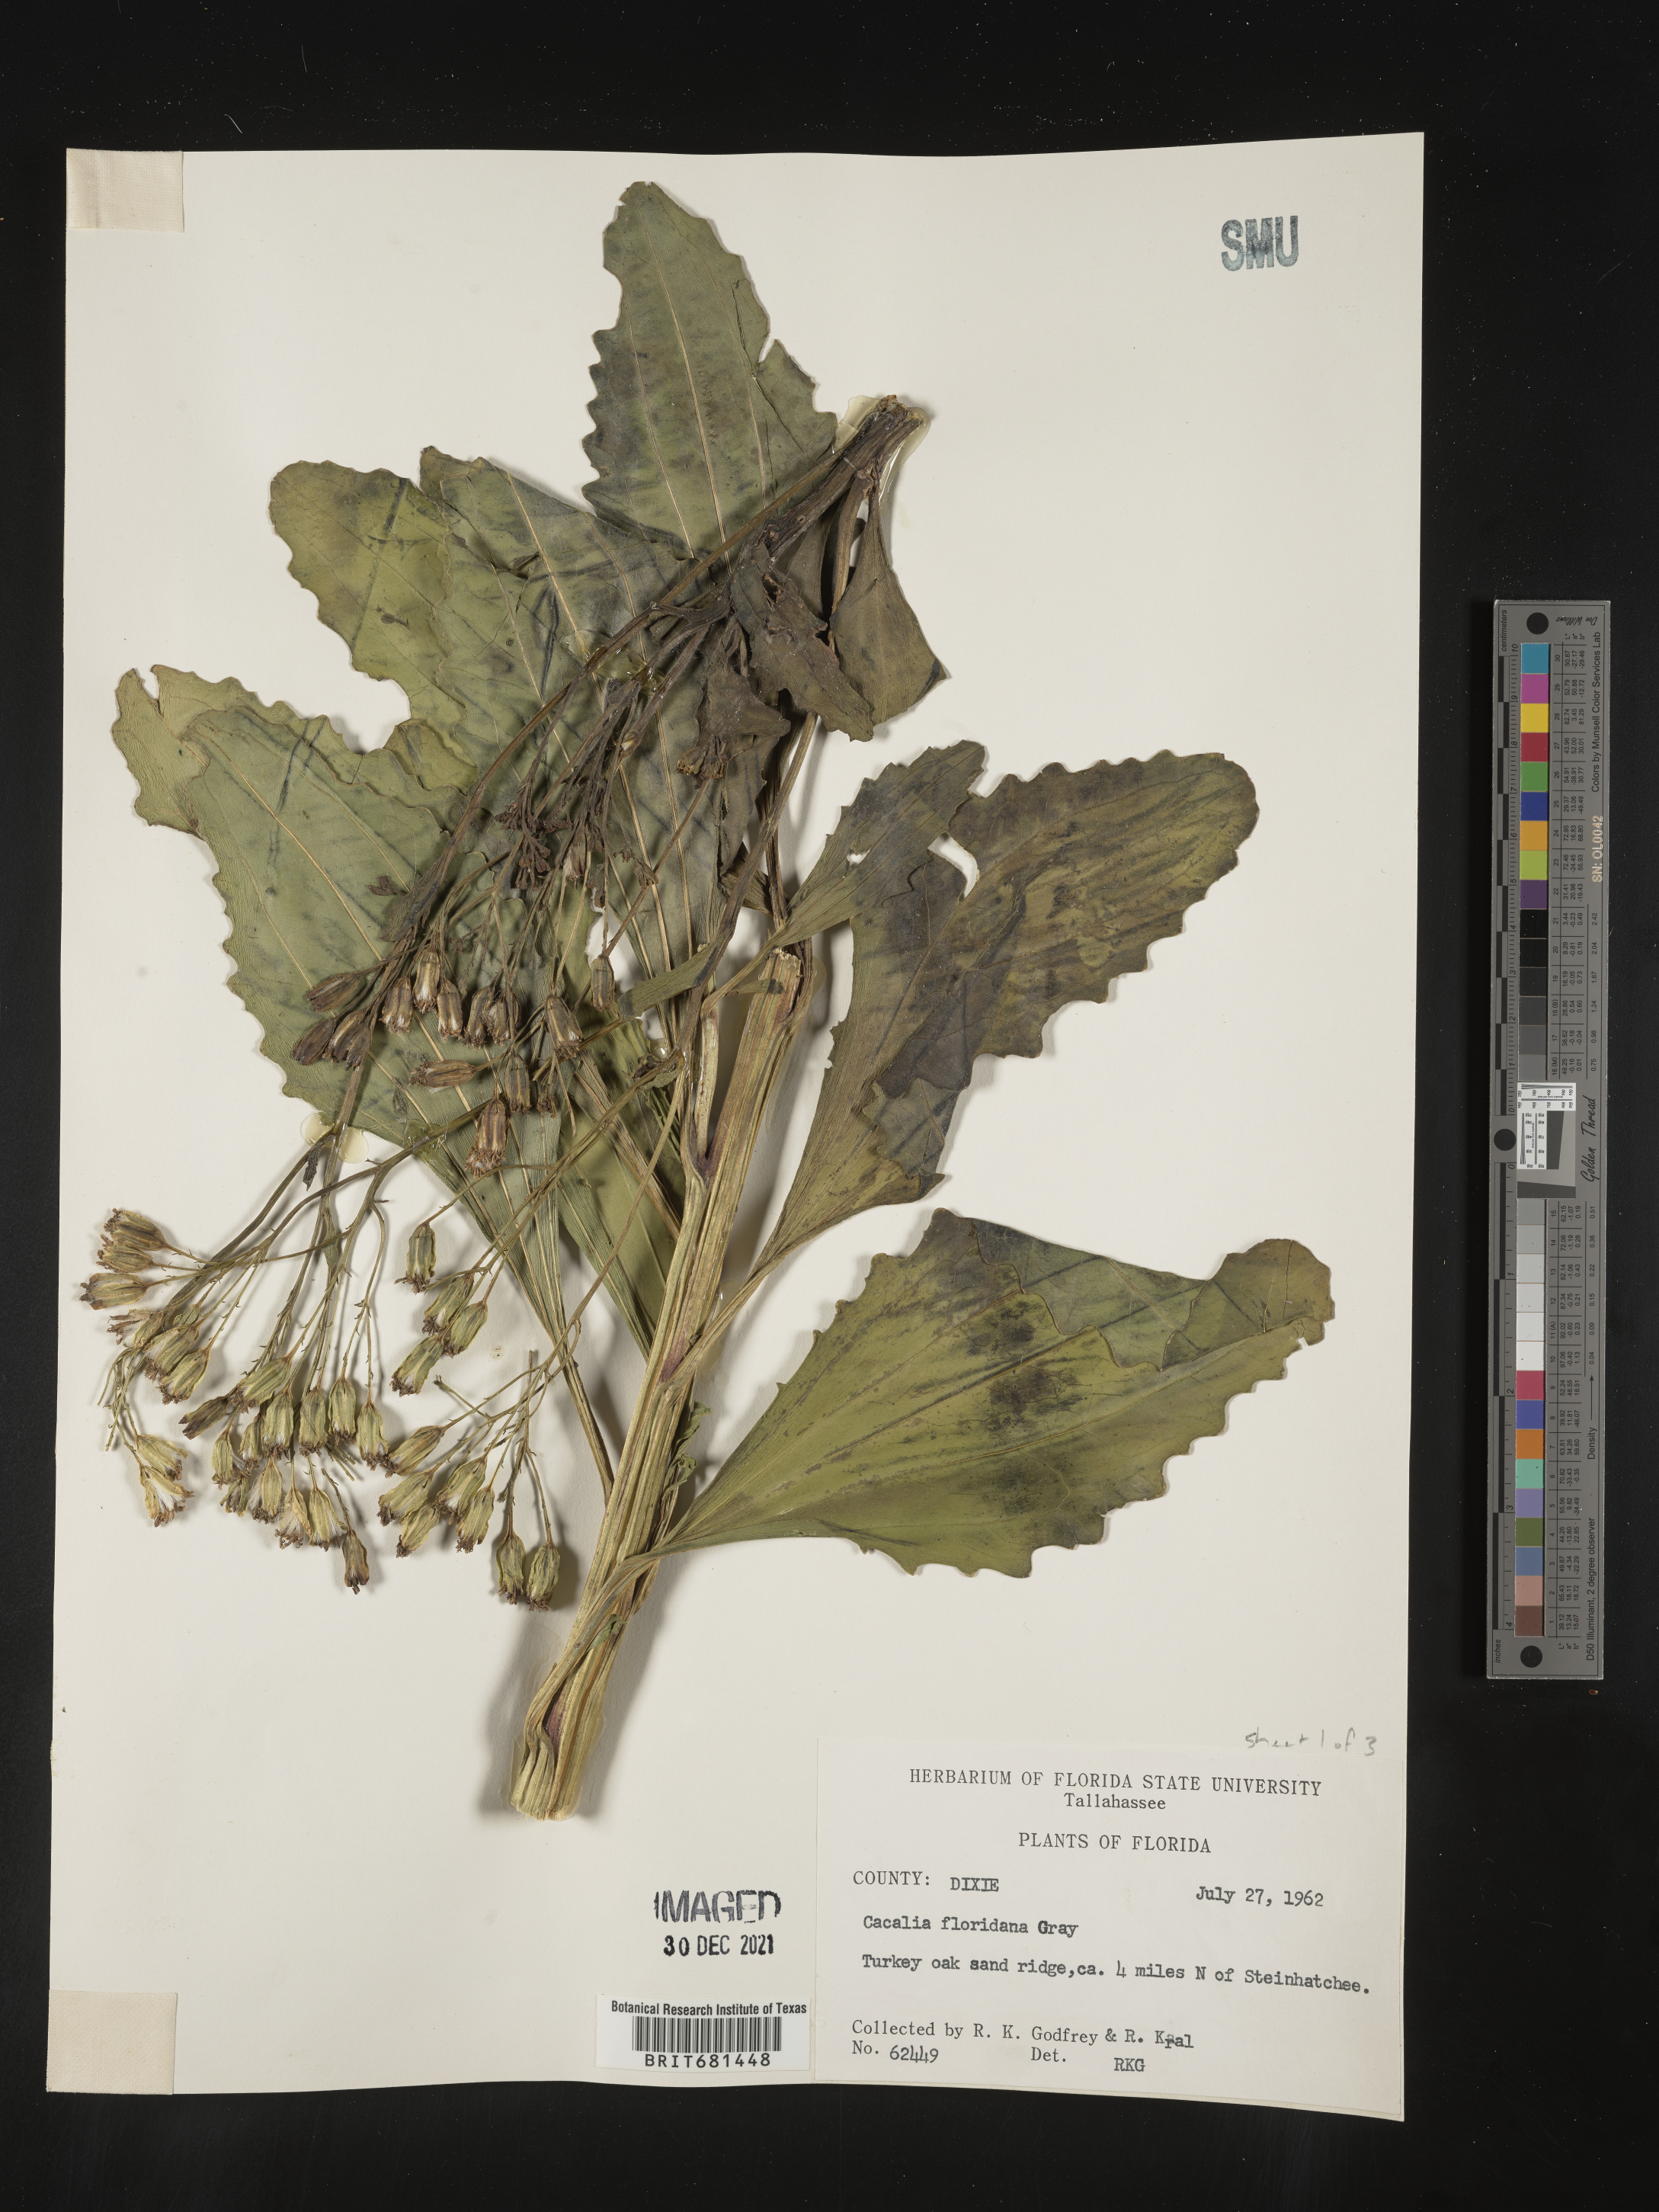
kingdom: Plantae
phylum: Tracheophyta
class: Magnoliopsida
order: Asterales
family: Asteraceae
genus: Arnoglossum
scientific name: Arnoglossum floridanum
